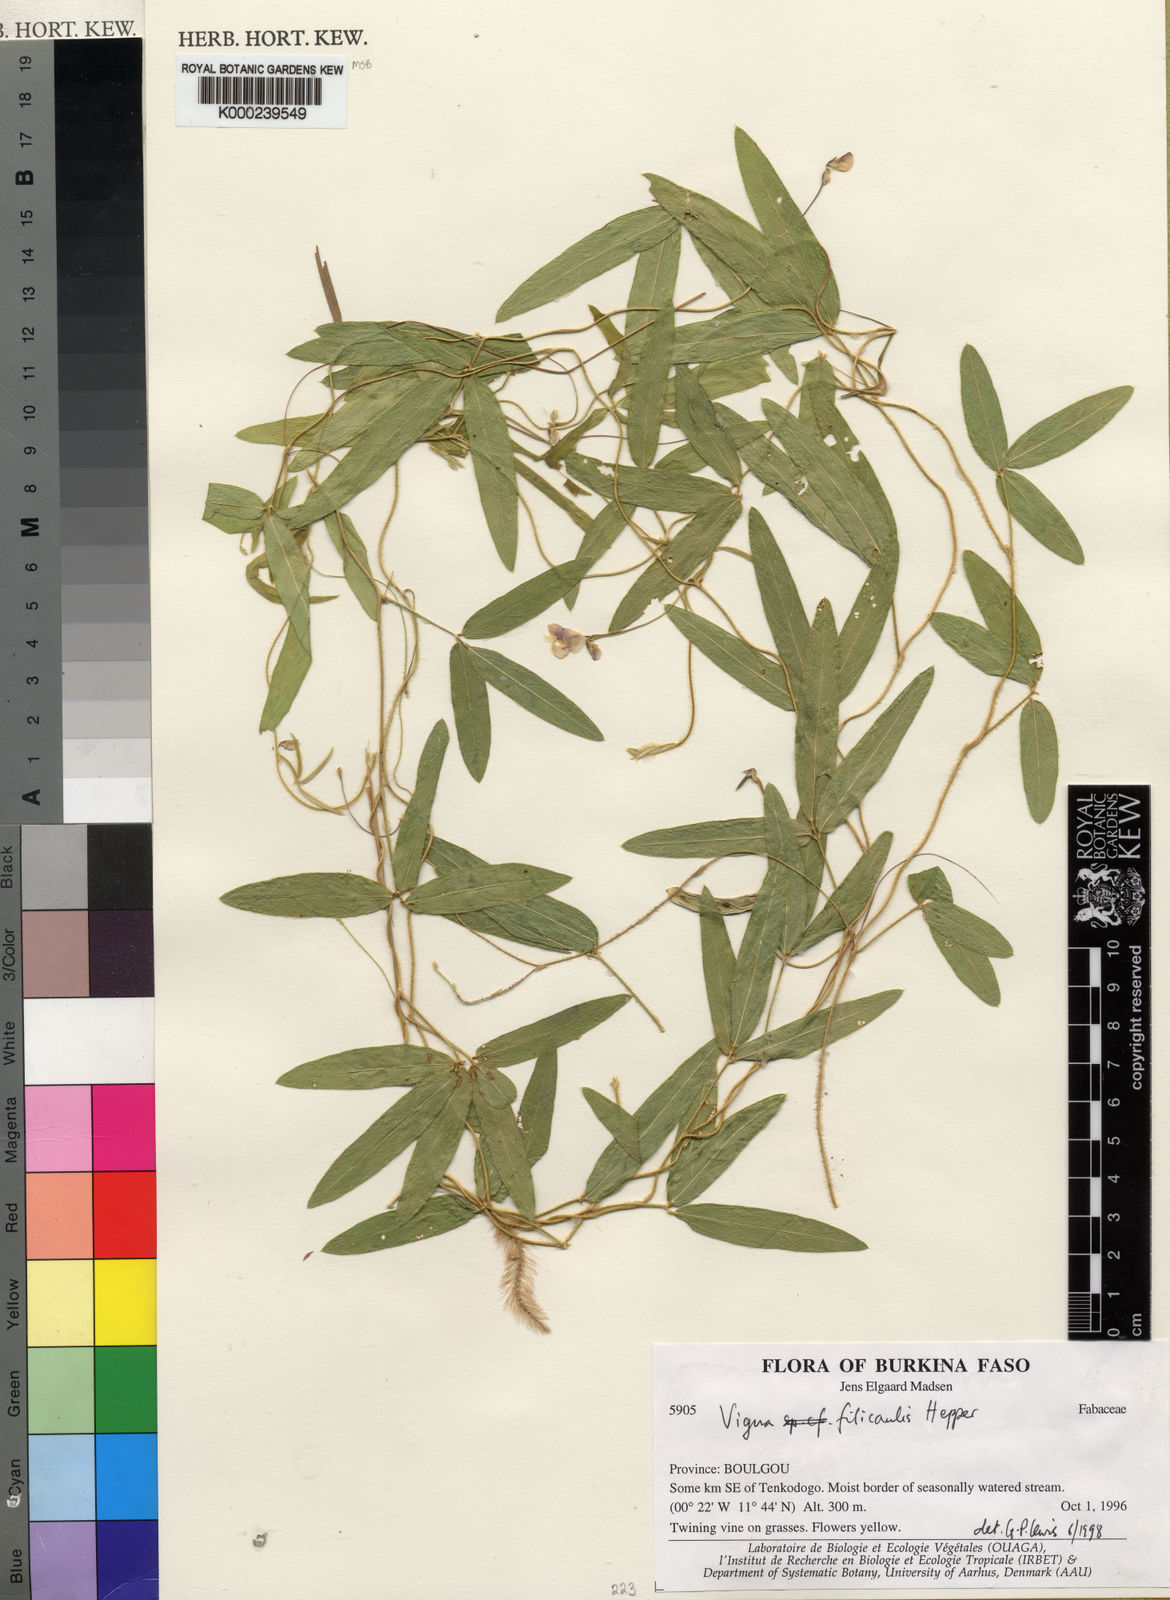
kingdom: Plantae
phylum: Tracheophyta
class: Magnoliopsida
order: Fabales
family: Fabaceae
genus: Vigna
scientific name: Vigna filicaulis
